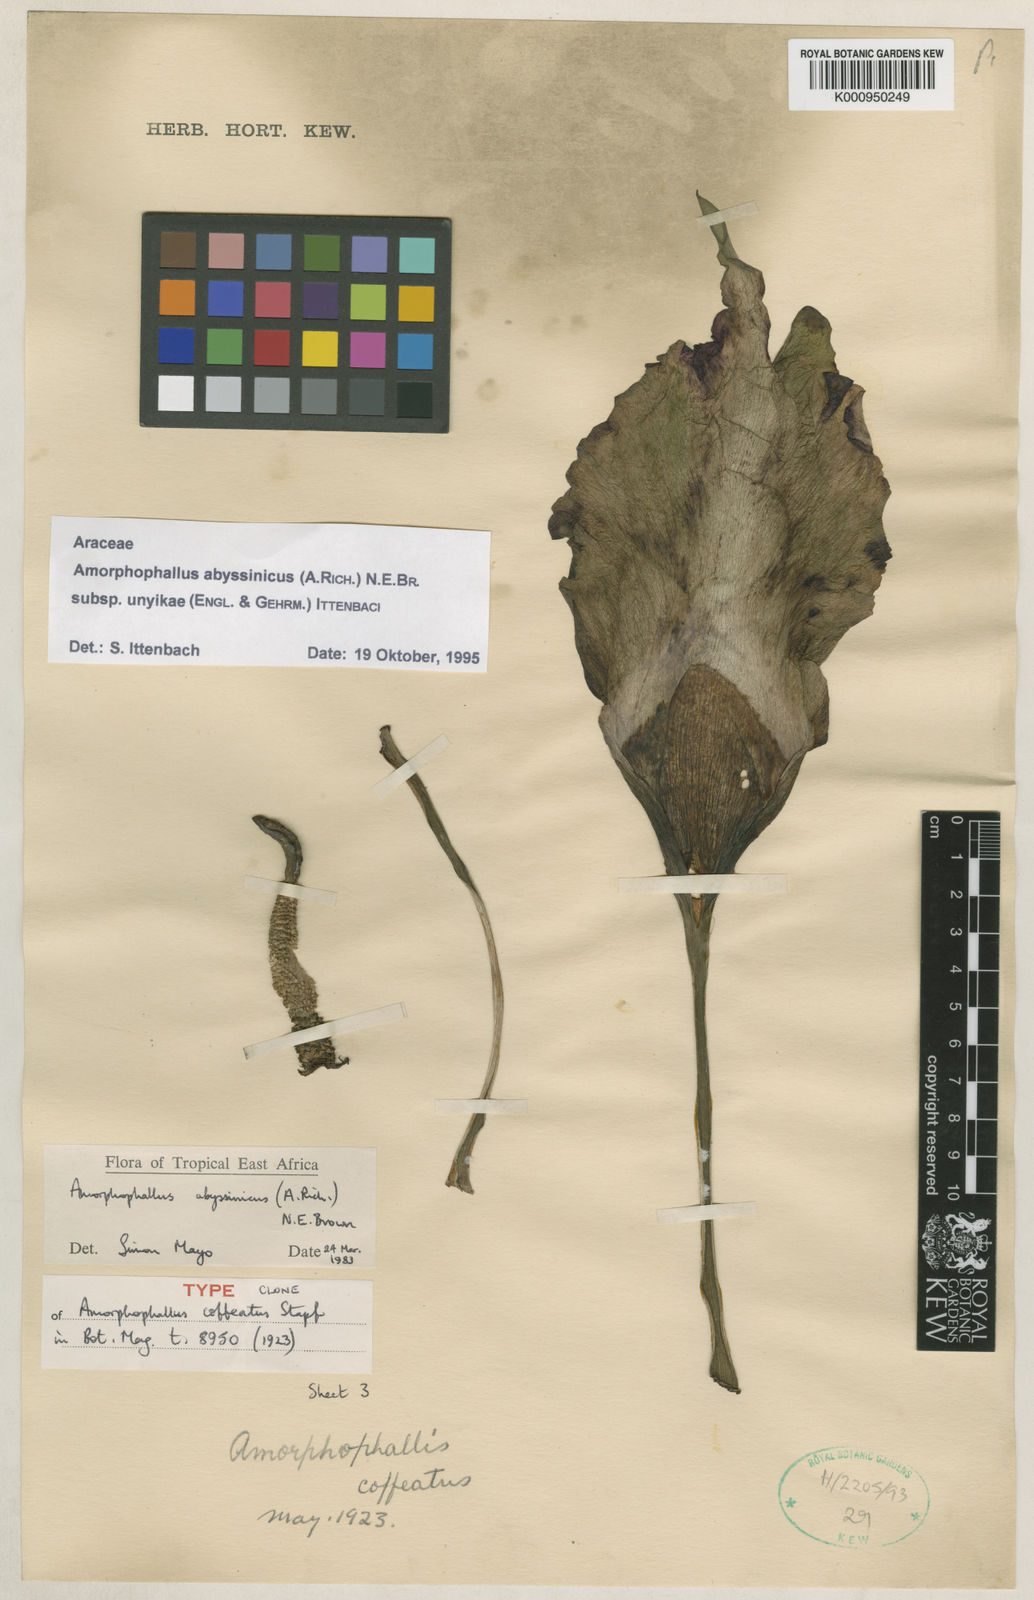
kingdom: Plantae
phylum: Tracheophyta
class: Liliopsida
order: Alismatales
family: Araceae
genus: Amorphophallus
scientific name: Amorphophallus abyssinicus
